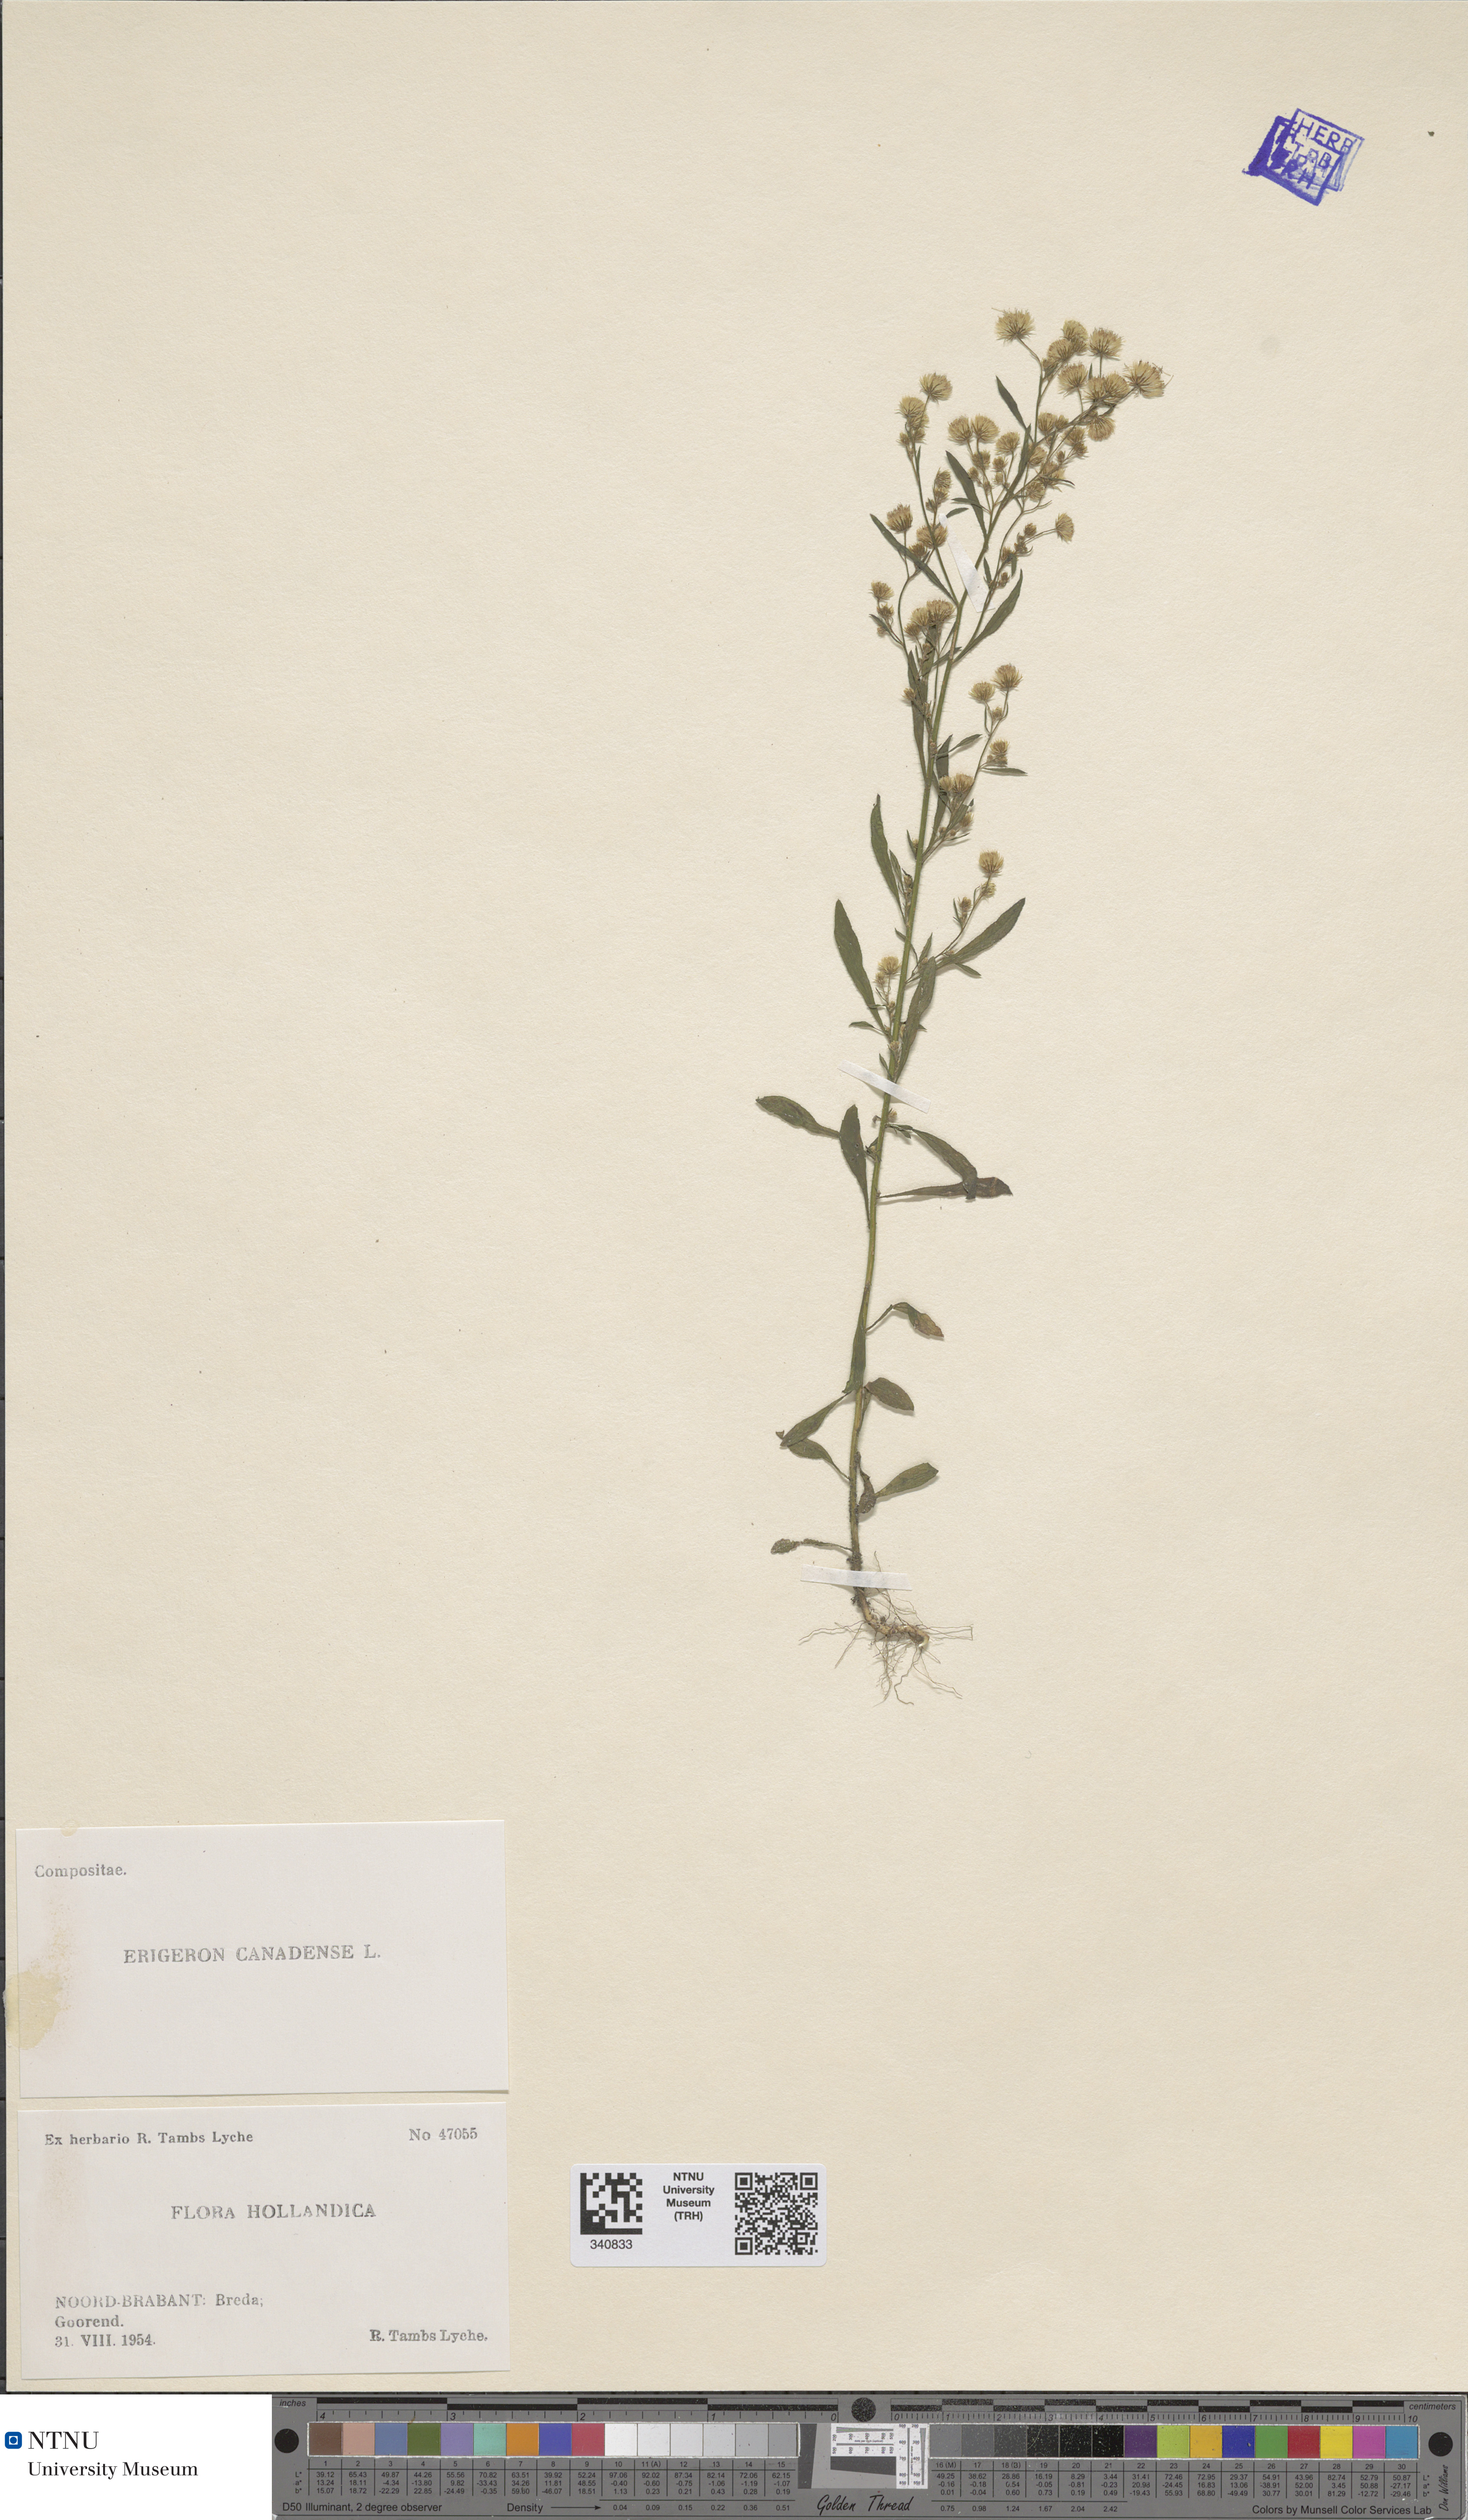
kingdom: Plantae
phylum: Tracheophyta
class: Magnoliopsida
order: Asterales
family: Asteraceae
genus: Erigeron
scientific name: Erigeron canadensis
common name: Canadian fleabane
